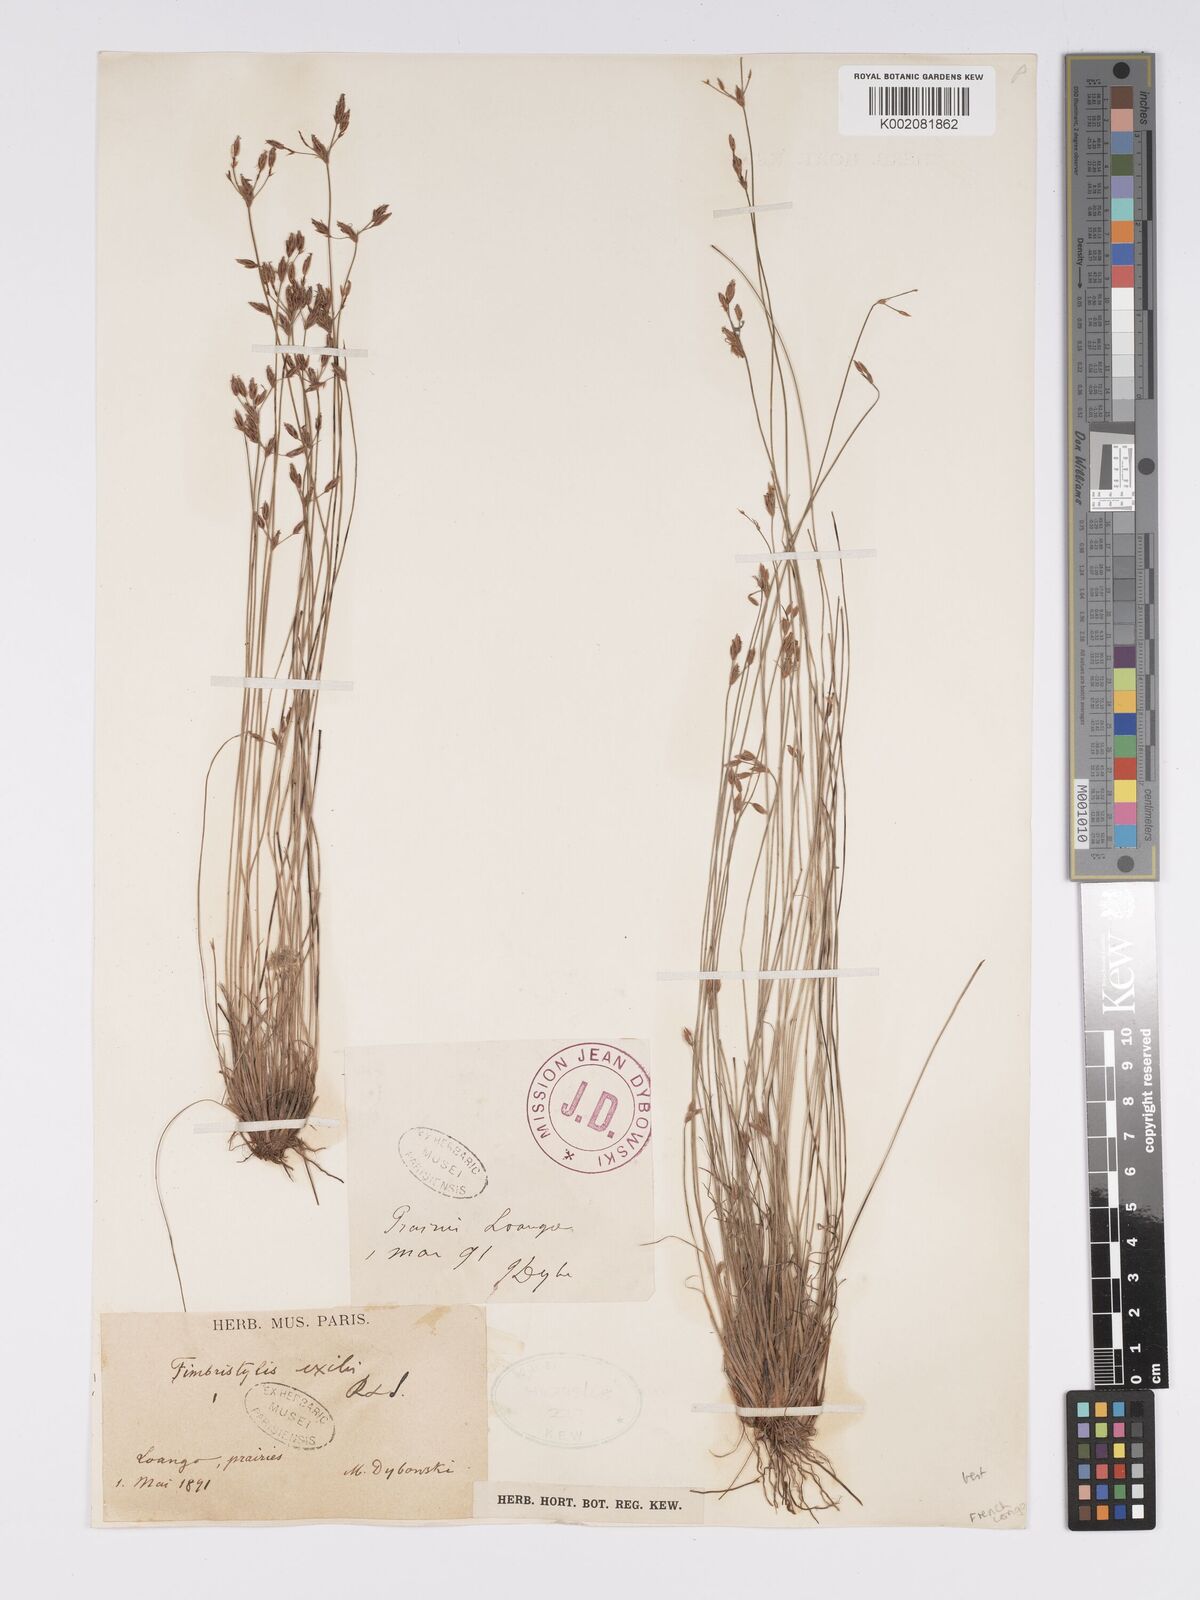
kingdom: Plantae
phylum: Tracheophyta
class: Liliopsida
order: Poales
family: Cyperaceae
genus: Bulbostylis
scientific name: Bulbostylis hispidula
